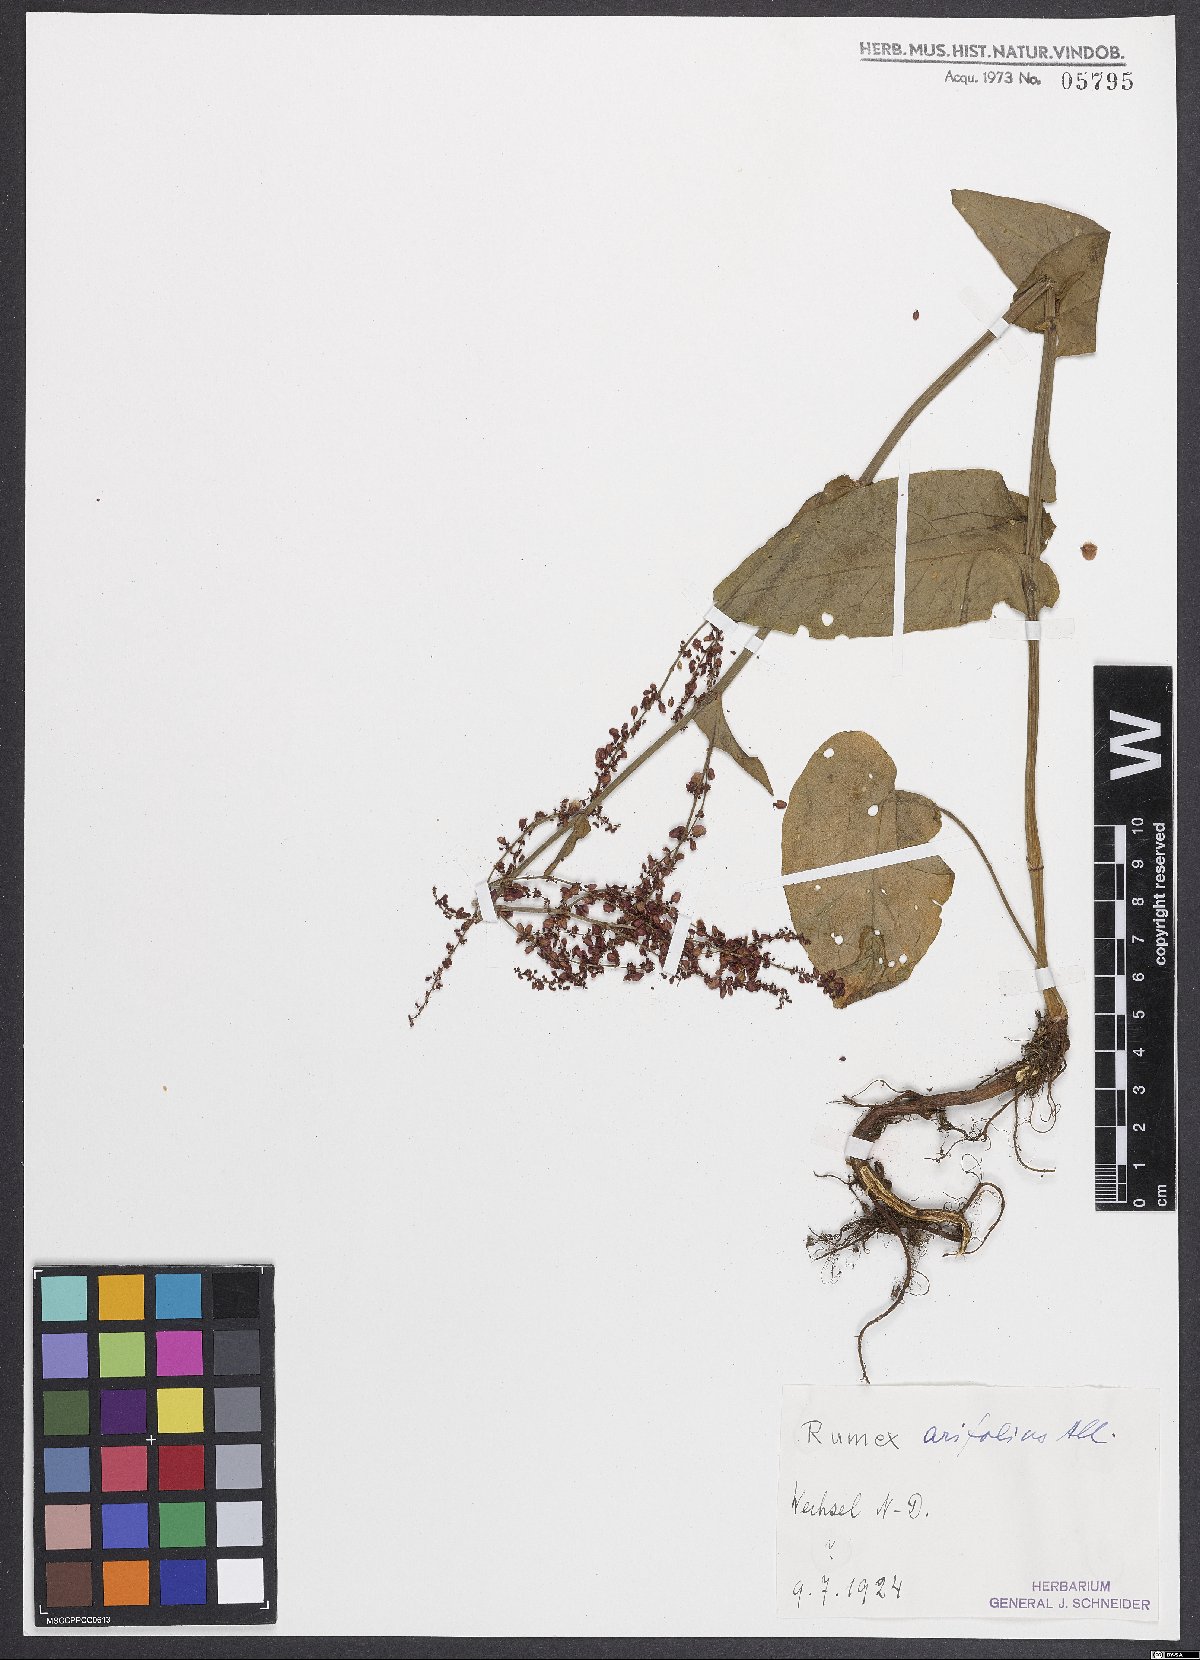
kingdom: Plantae
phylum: Tracheophyta
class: Magnoliopsida
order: Caryophyllales
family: Polygonaceae
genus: Rumex
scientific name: Rumex arifolius
